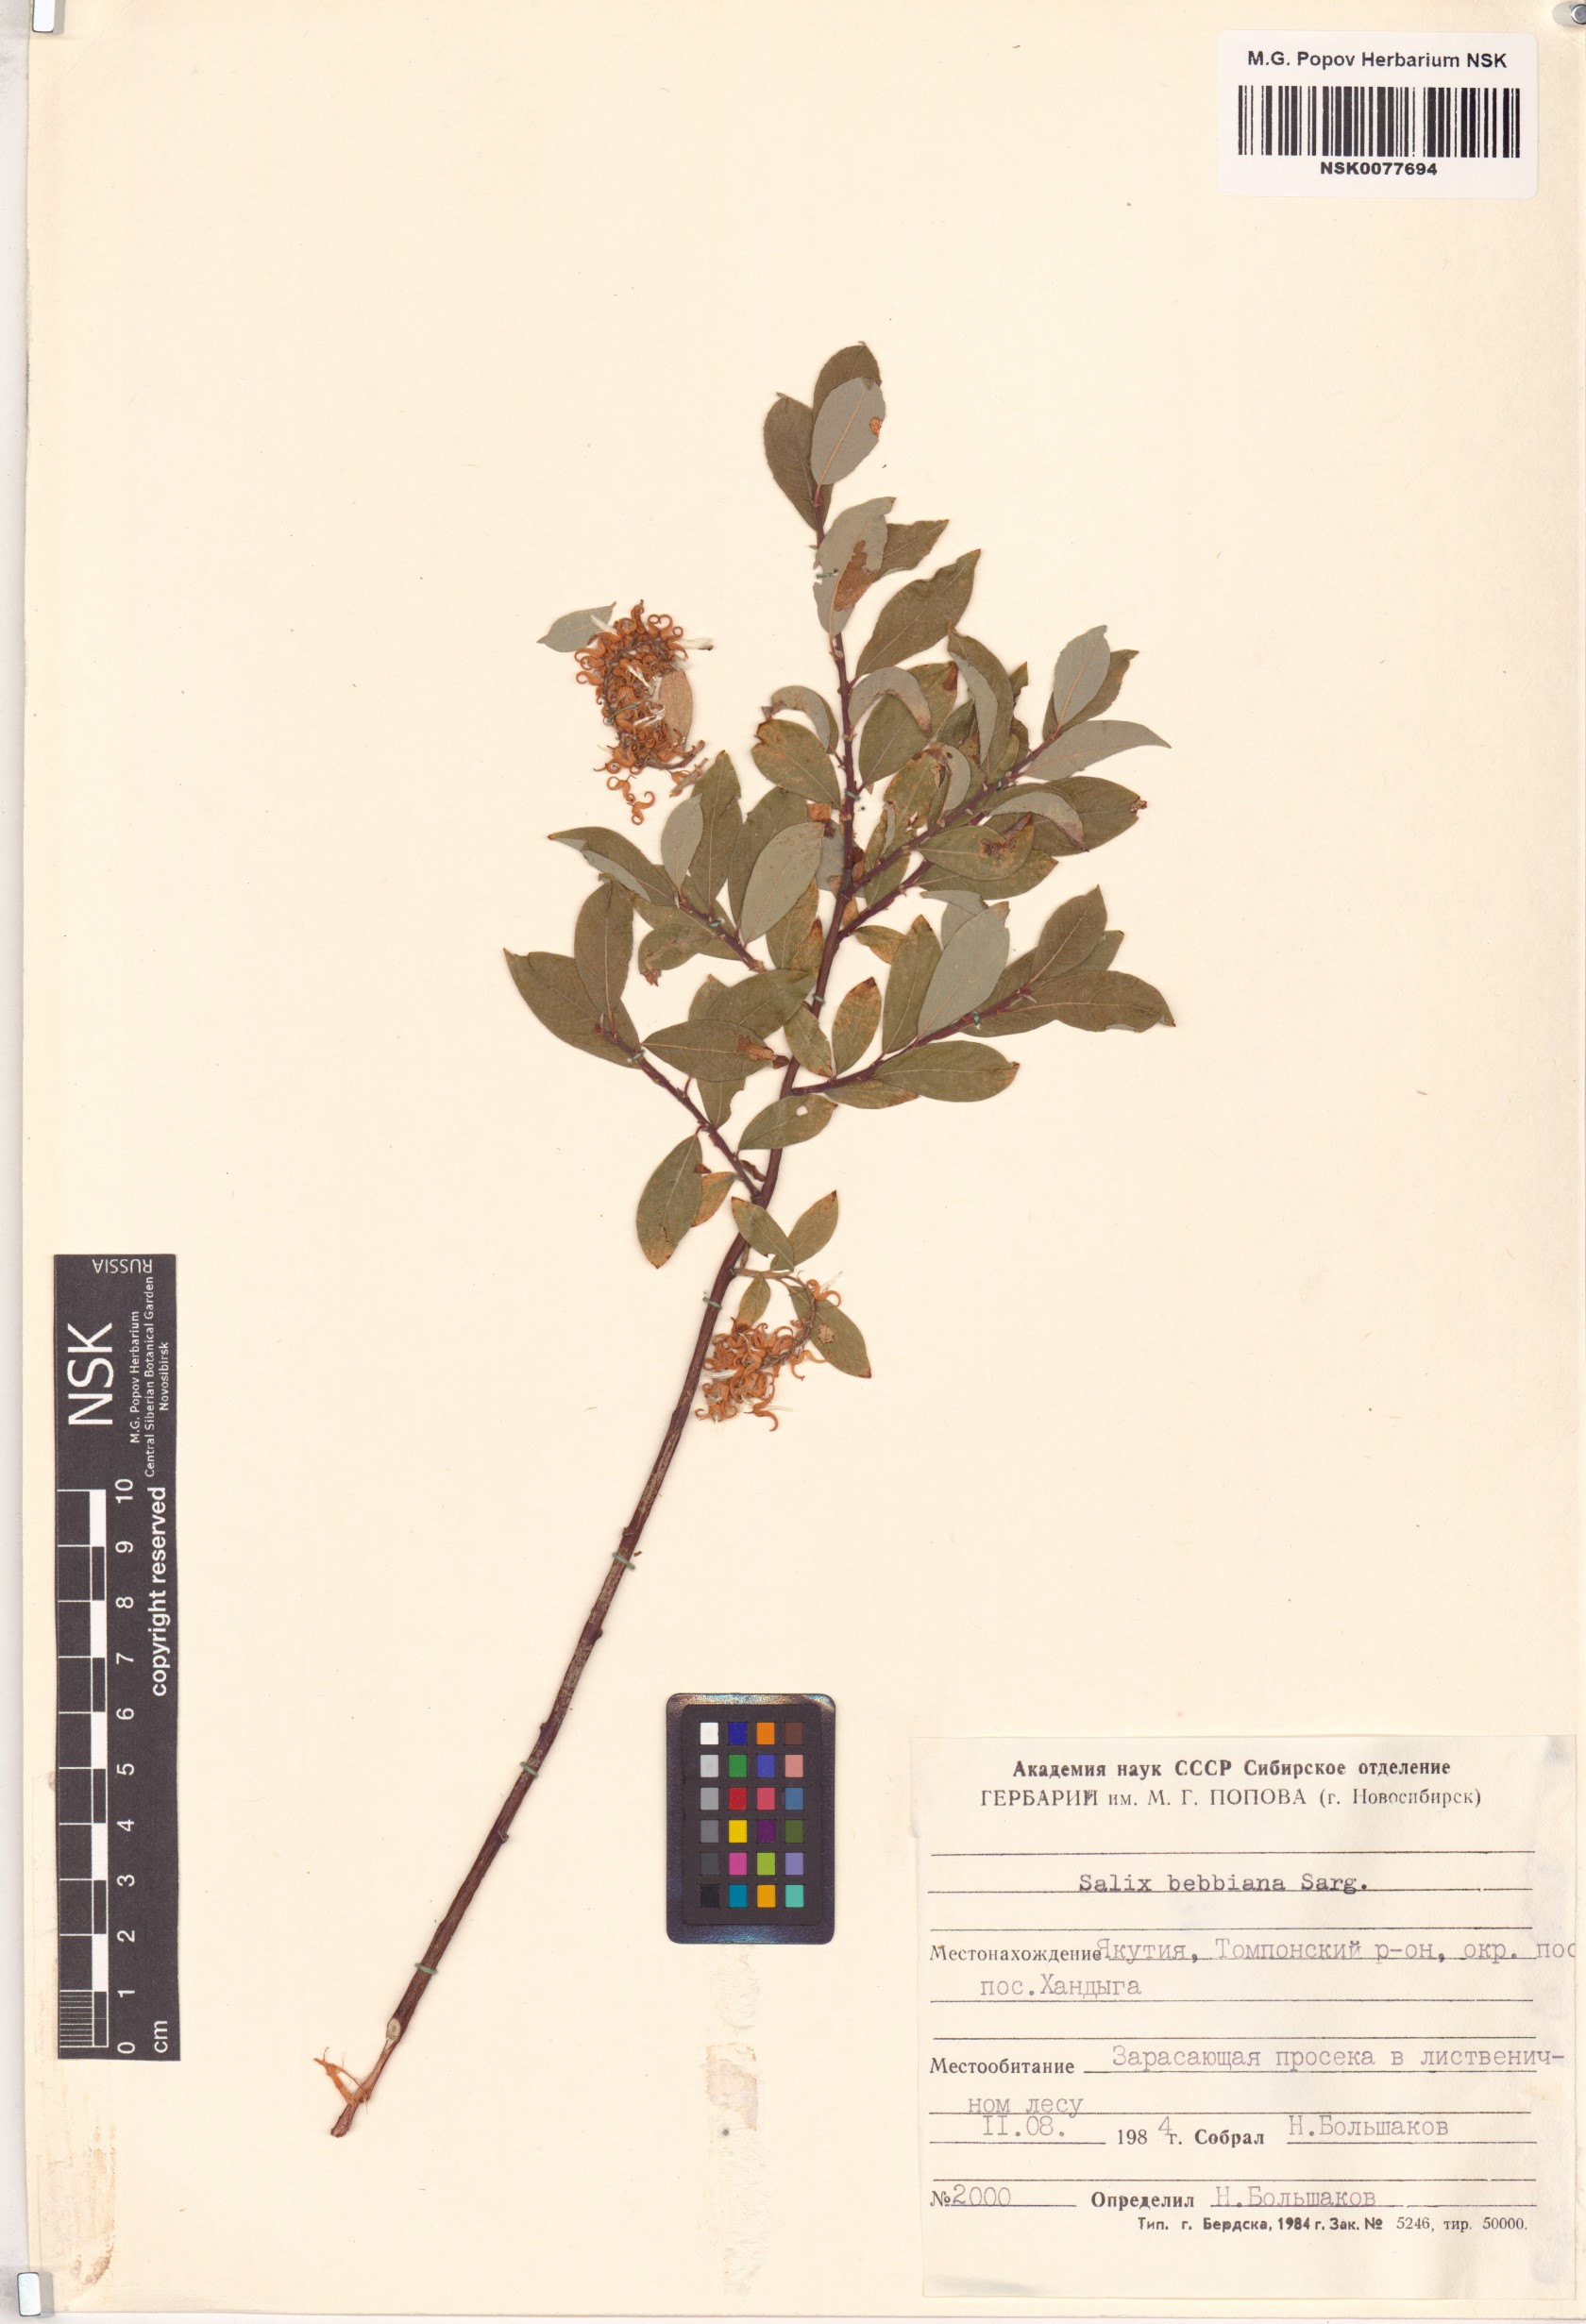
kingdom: Plantae
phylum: Tracheophyta
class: Magnoliopsida
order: Malpighiales
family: Salicaceae
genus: Salix
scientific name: Salix bebbiana
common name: Bebb's willow
